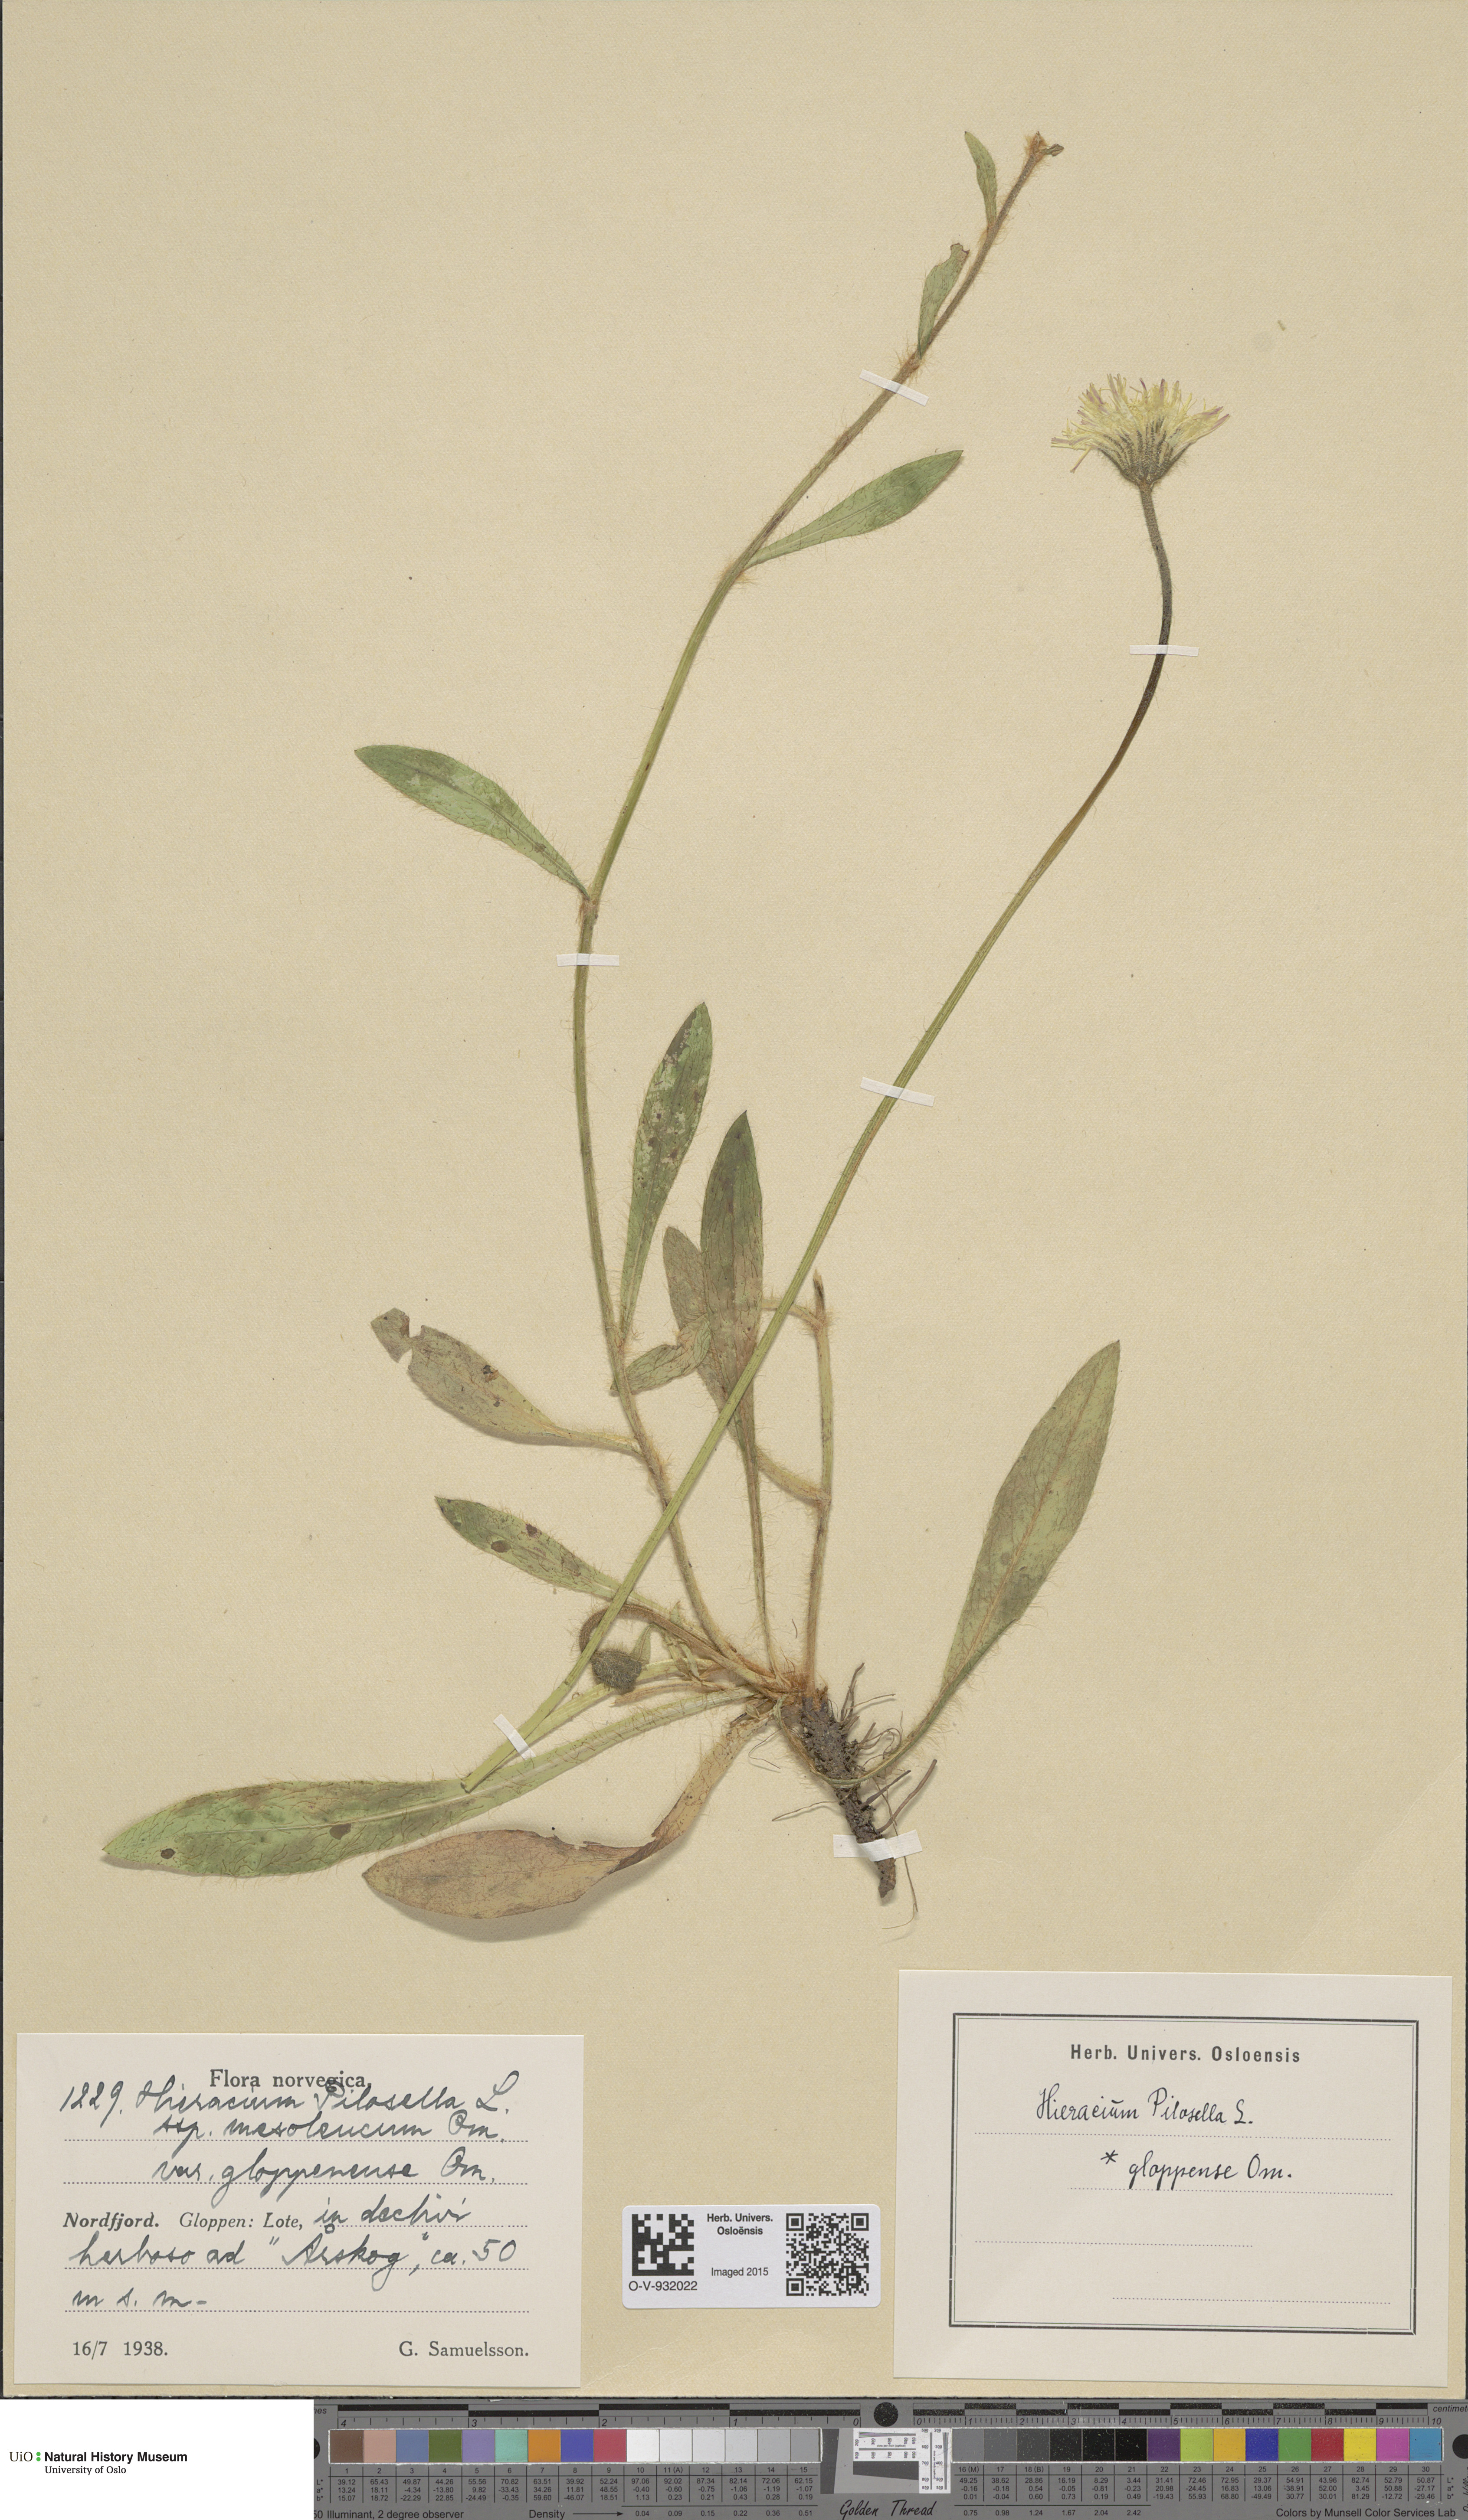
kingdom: Plantae
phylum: Tracheophyta
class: Magnoliopsida
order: Asterales
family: Asteraceae
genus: Pilosella
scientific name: Pilosella officinarum
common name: Mouse-ear hawkweed
